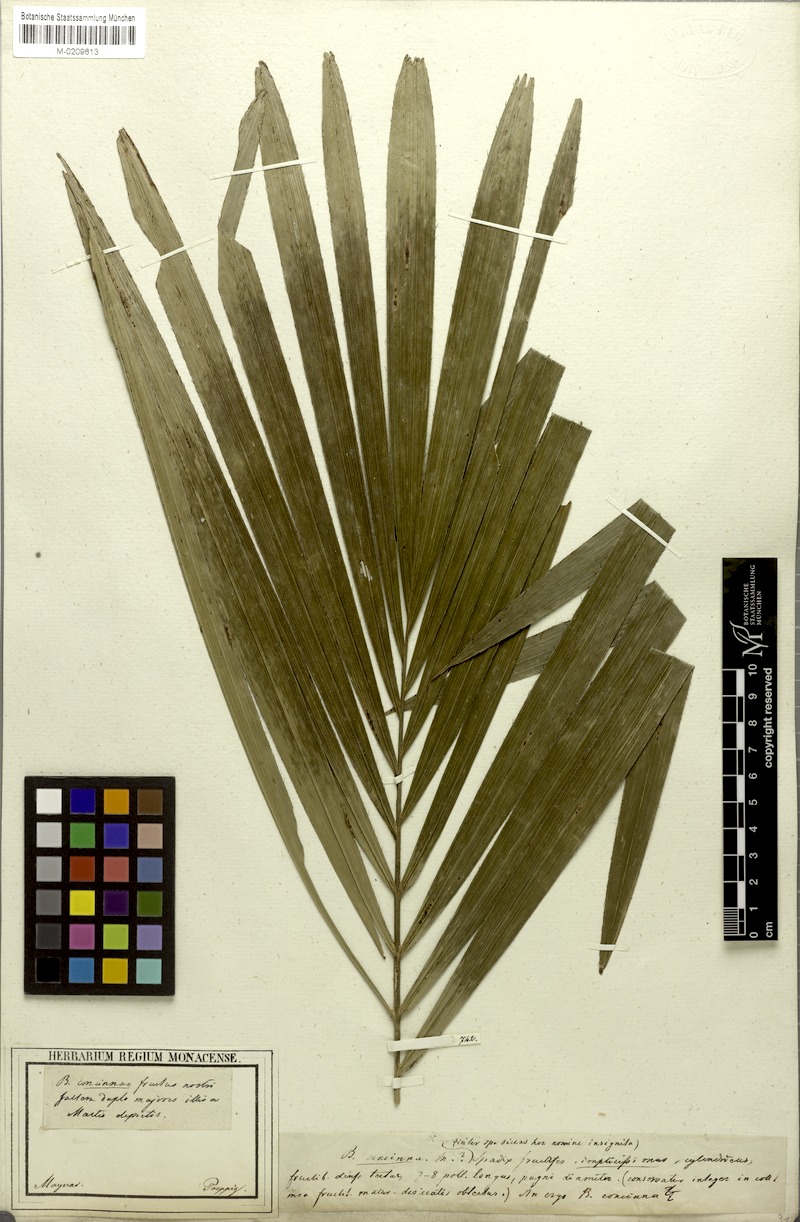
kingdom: Plantae
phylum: Tracheophyta
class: Liliopsida
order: Arecales
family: Arecaceae
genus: Bactris
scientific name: Bactris concinna
